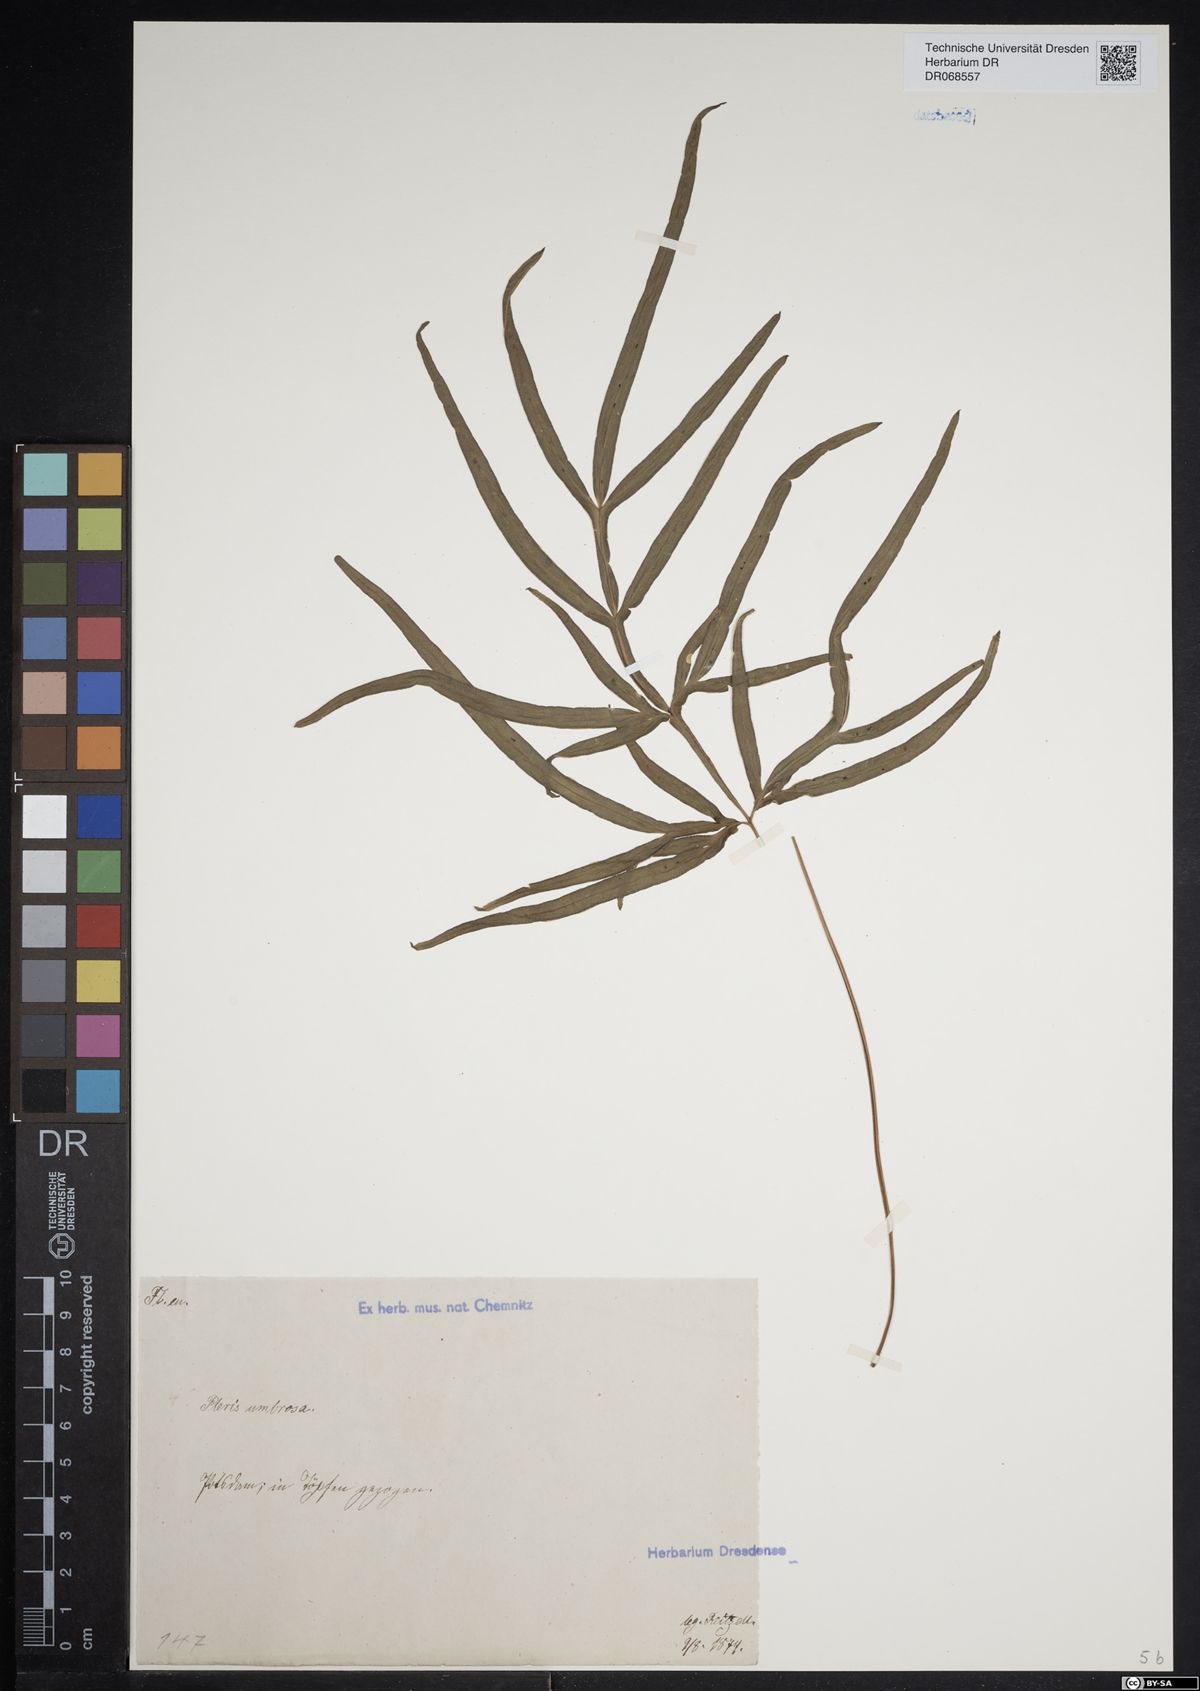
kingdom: Plantae
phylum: Tracheophyta
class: Polypodiopsida
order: Polypodiales
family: Pteridaceae
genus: Pteris
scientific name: Pteris umbrosa
